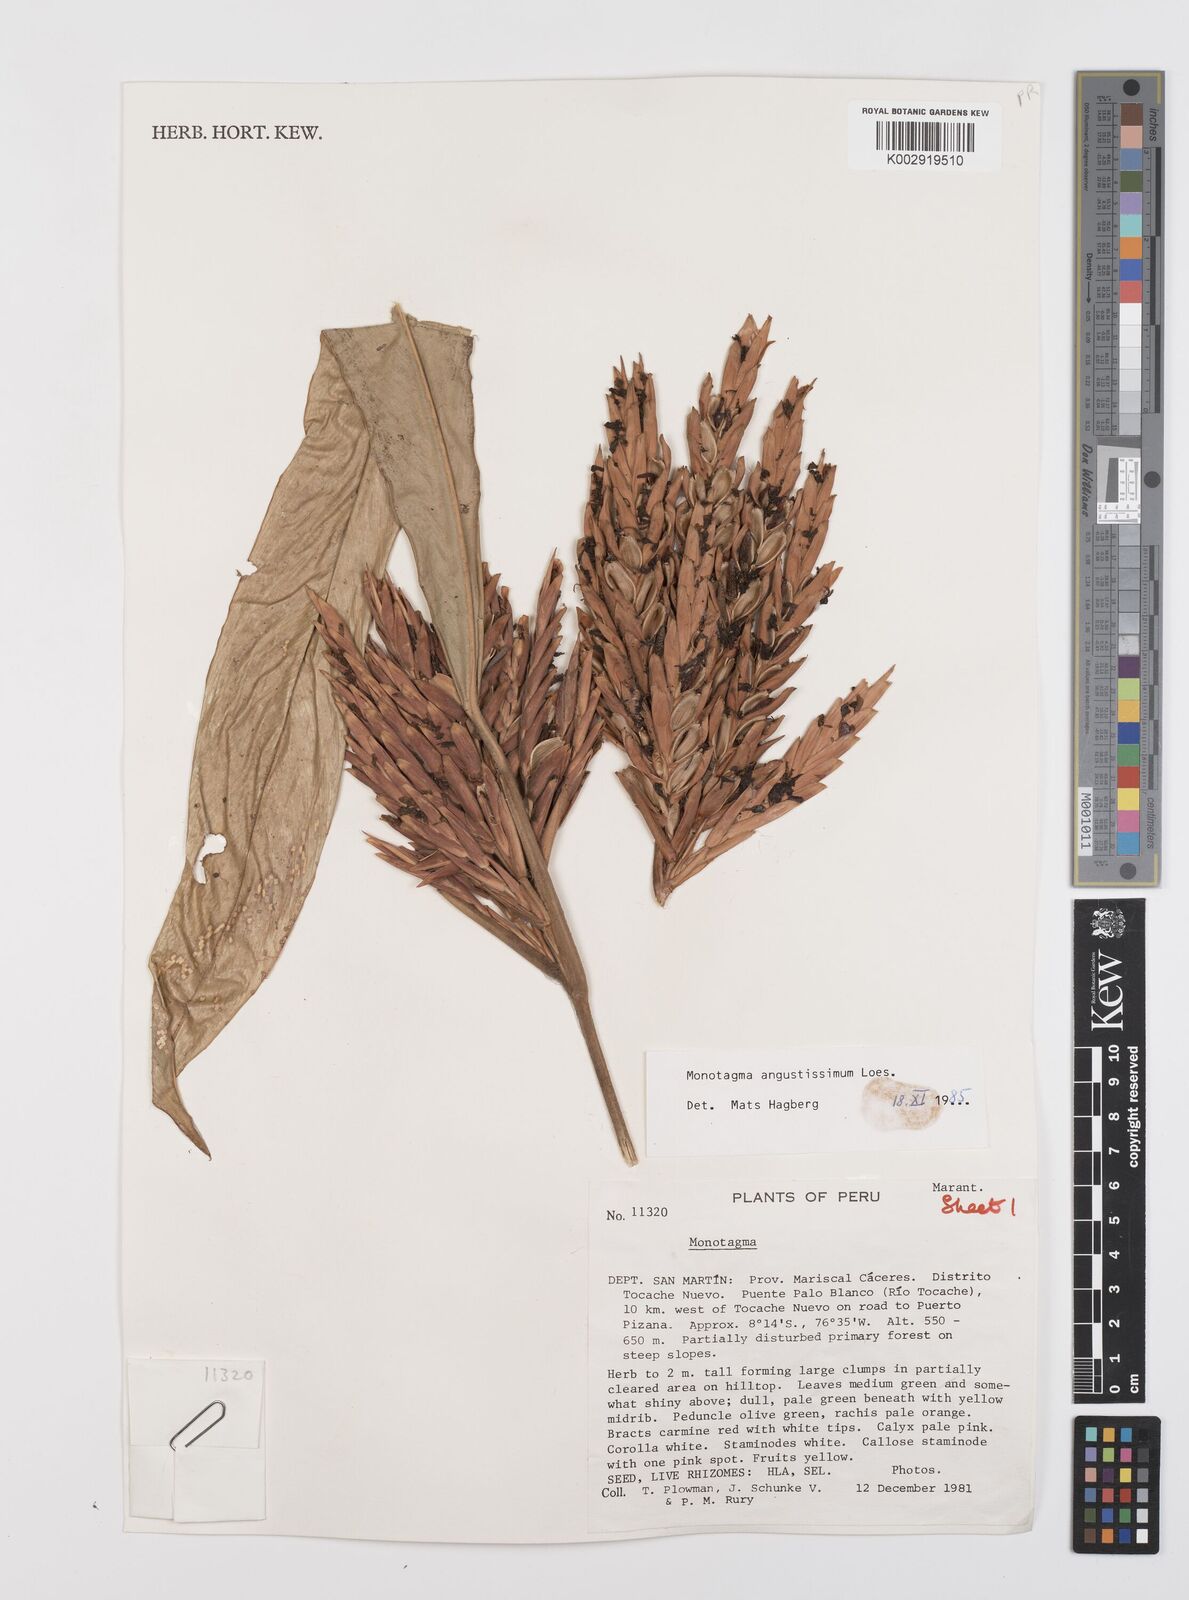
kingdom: Plantae
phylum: Tracheophyta
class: Liliopsida
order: Zingiberales
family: Marantaceae
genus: Monotagma
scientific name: Monotagma angustissimum
